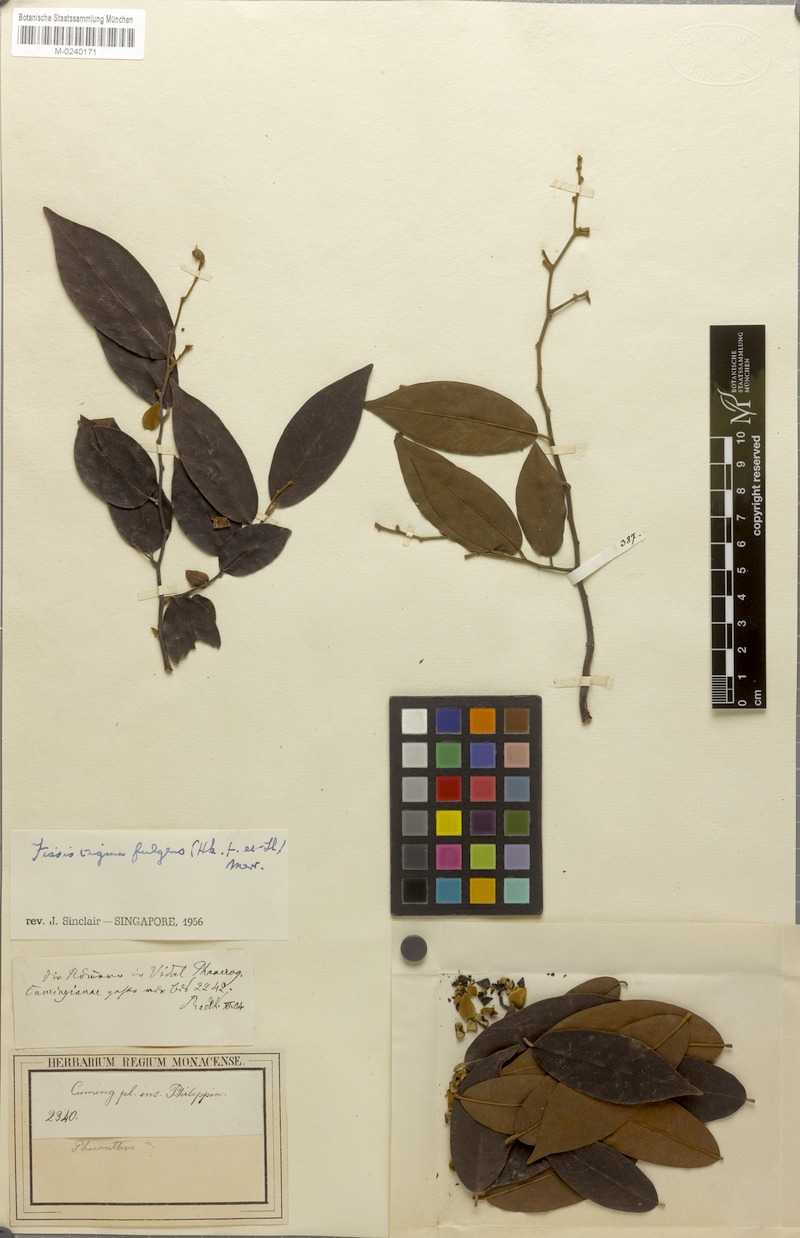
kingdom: Plantae
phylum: Tracheophyta
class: Magnoliopsida
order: Magnoliales
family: Annonaceae
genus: Fissistigma
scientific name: Fissistigma fulgens
